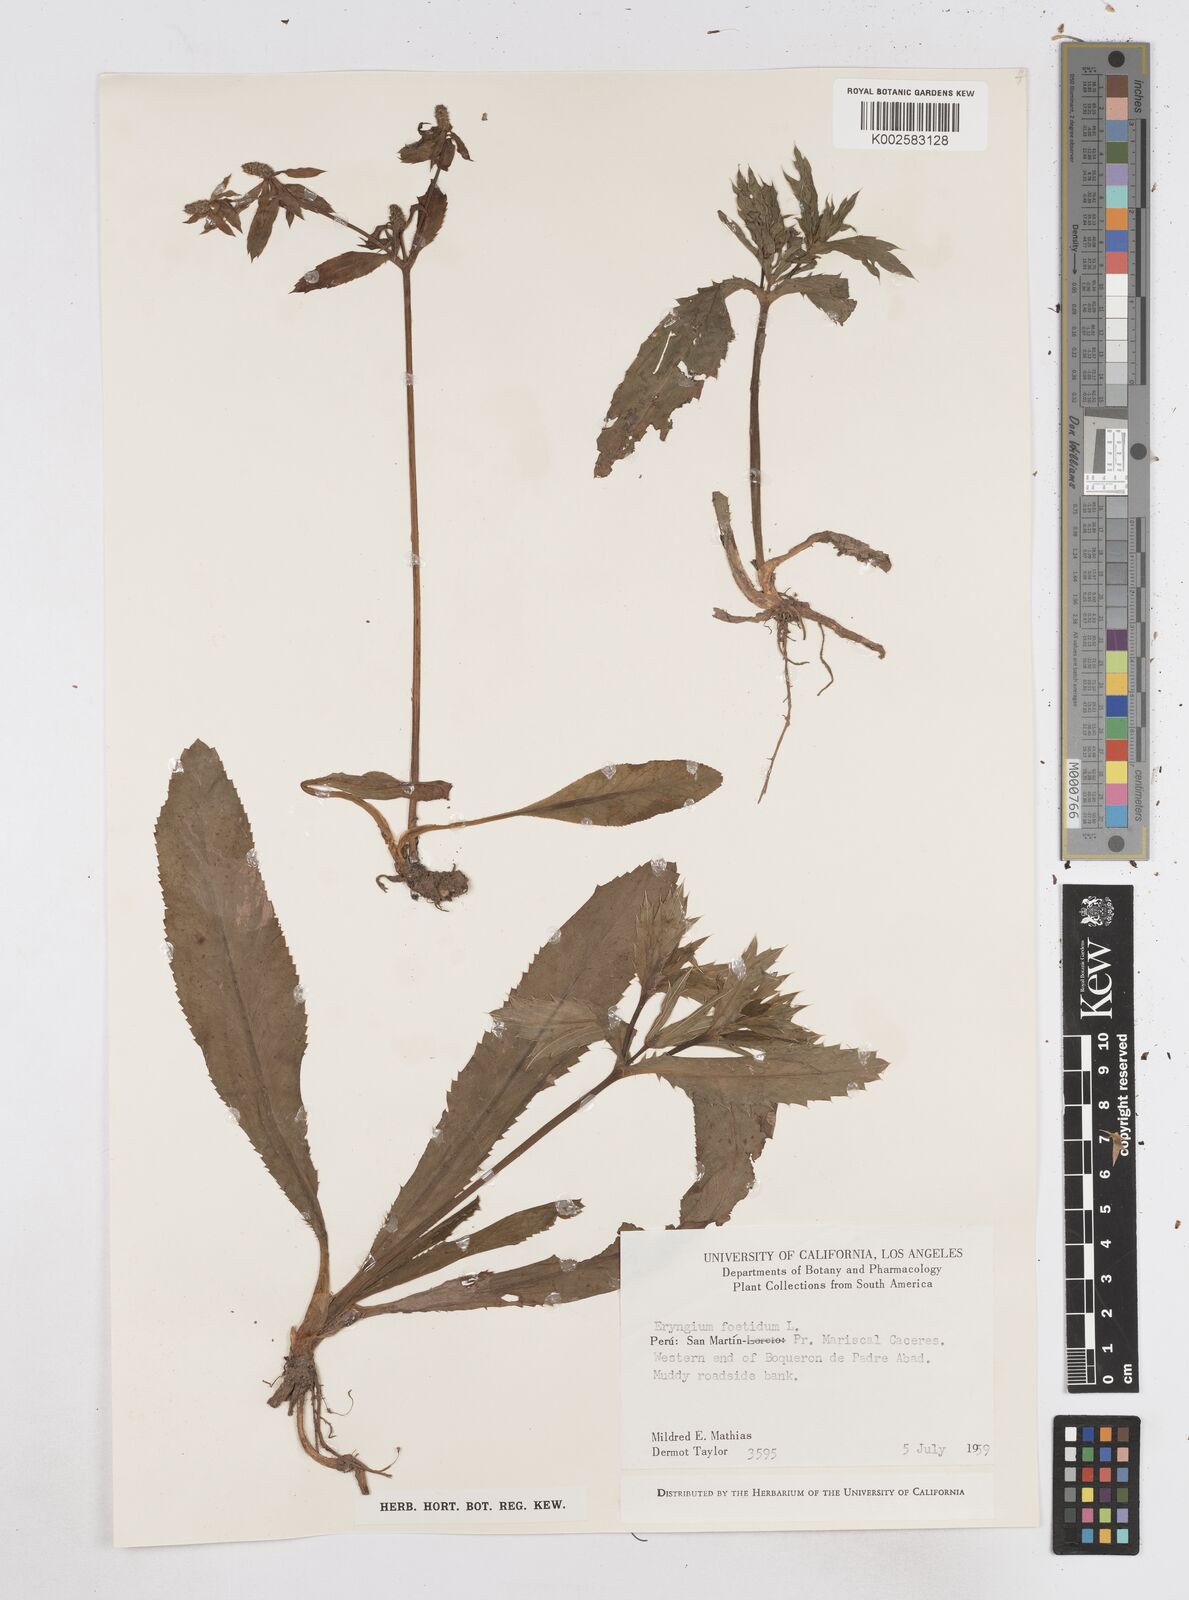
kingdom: Plantae
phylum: Tracheophyta
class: Magnoliopsida
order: Apiales
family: Apiaceae
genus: Eryngium
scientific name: Eryngium foetidum
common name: Fitweed
